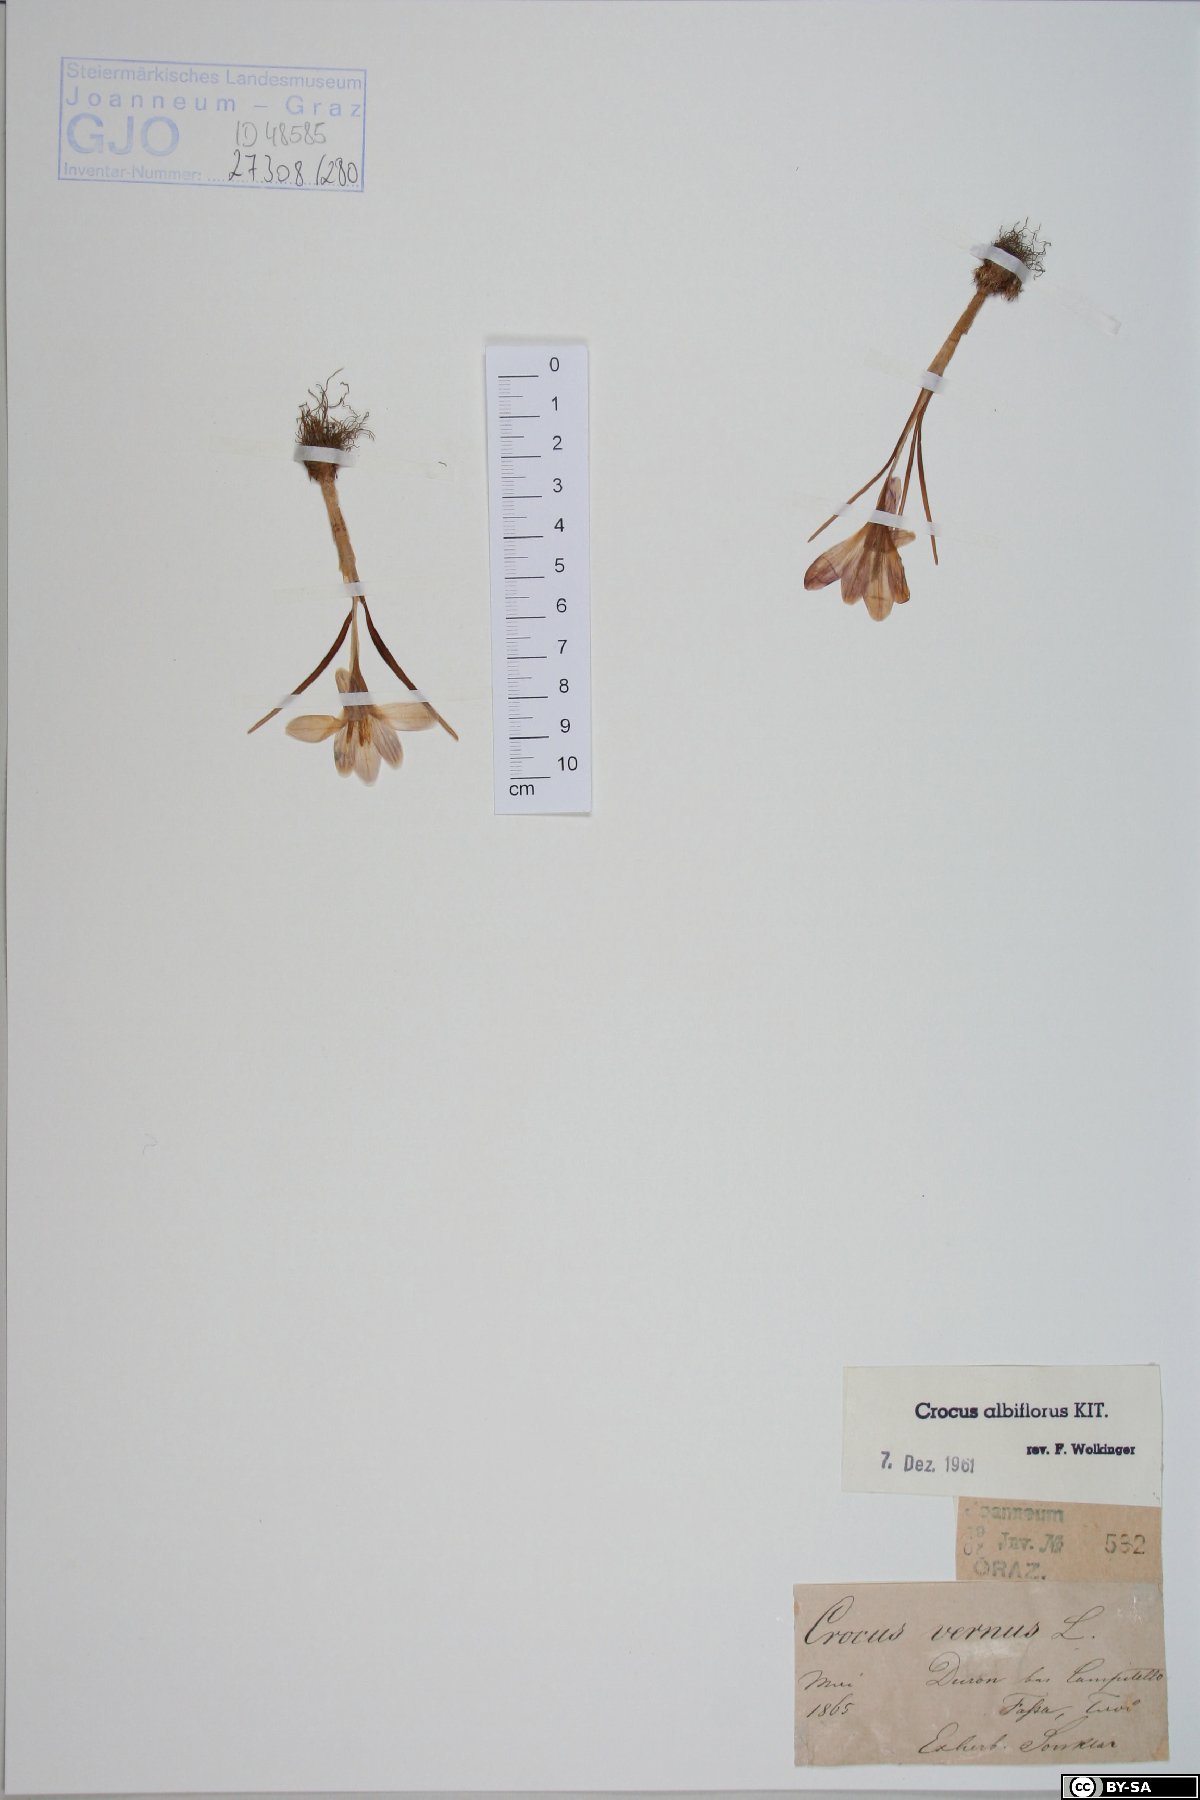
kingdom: Plantae
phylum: Tracheophyta
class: Liliopsida
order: Asparagales
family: Iridaceae
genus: Crocus
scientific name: Crocus vernus
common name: Spring crocus
